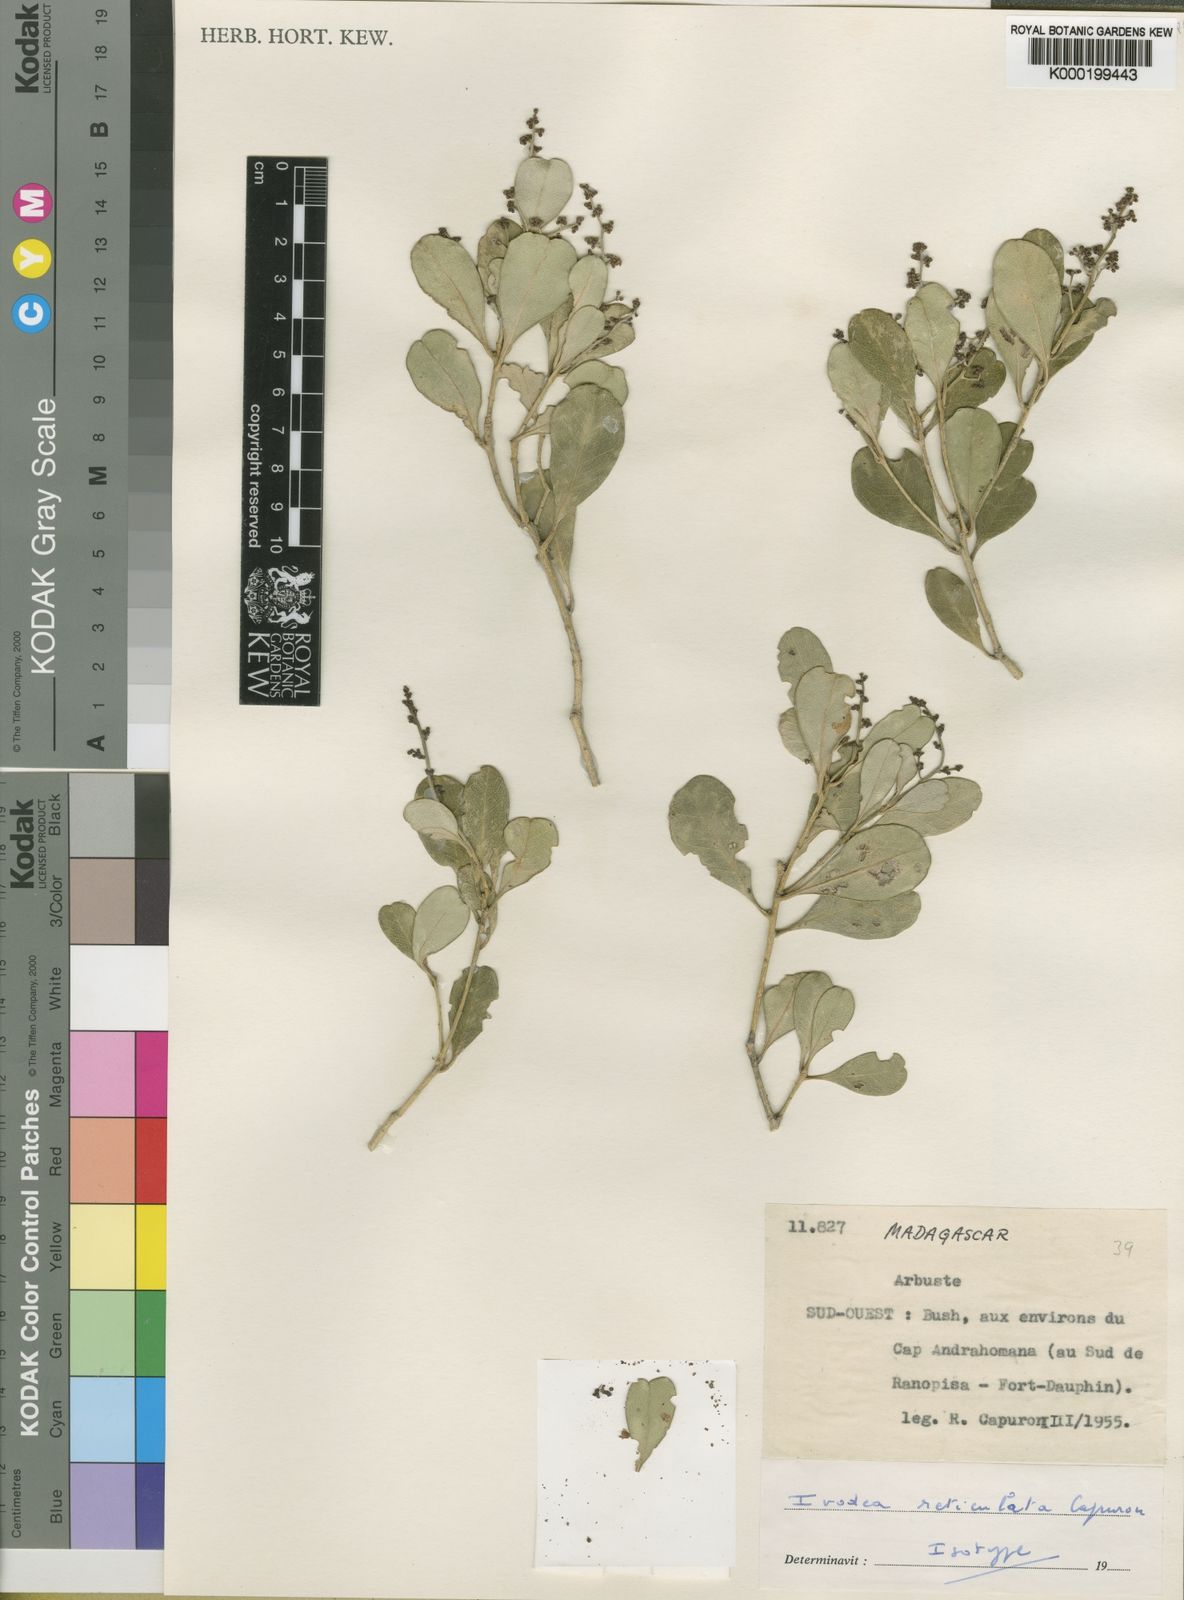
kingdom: Plantae
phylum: Tracheophyta
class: Magnoliopsida
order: Sapindales
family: Rutaceae
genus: Ivodea
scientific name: Ivodea reticulata
